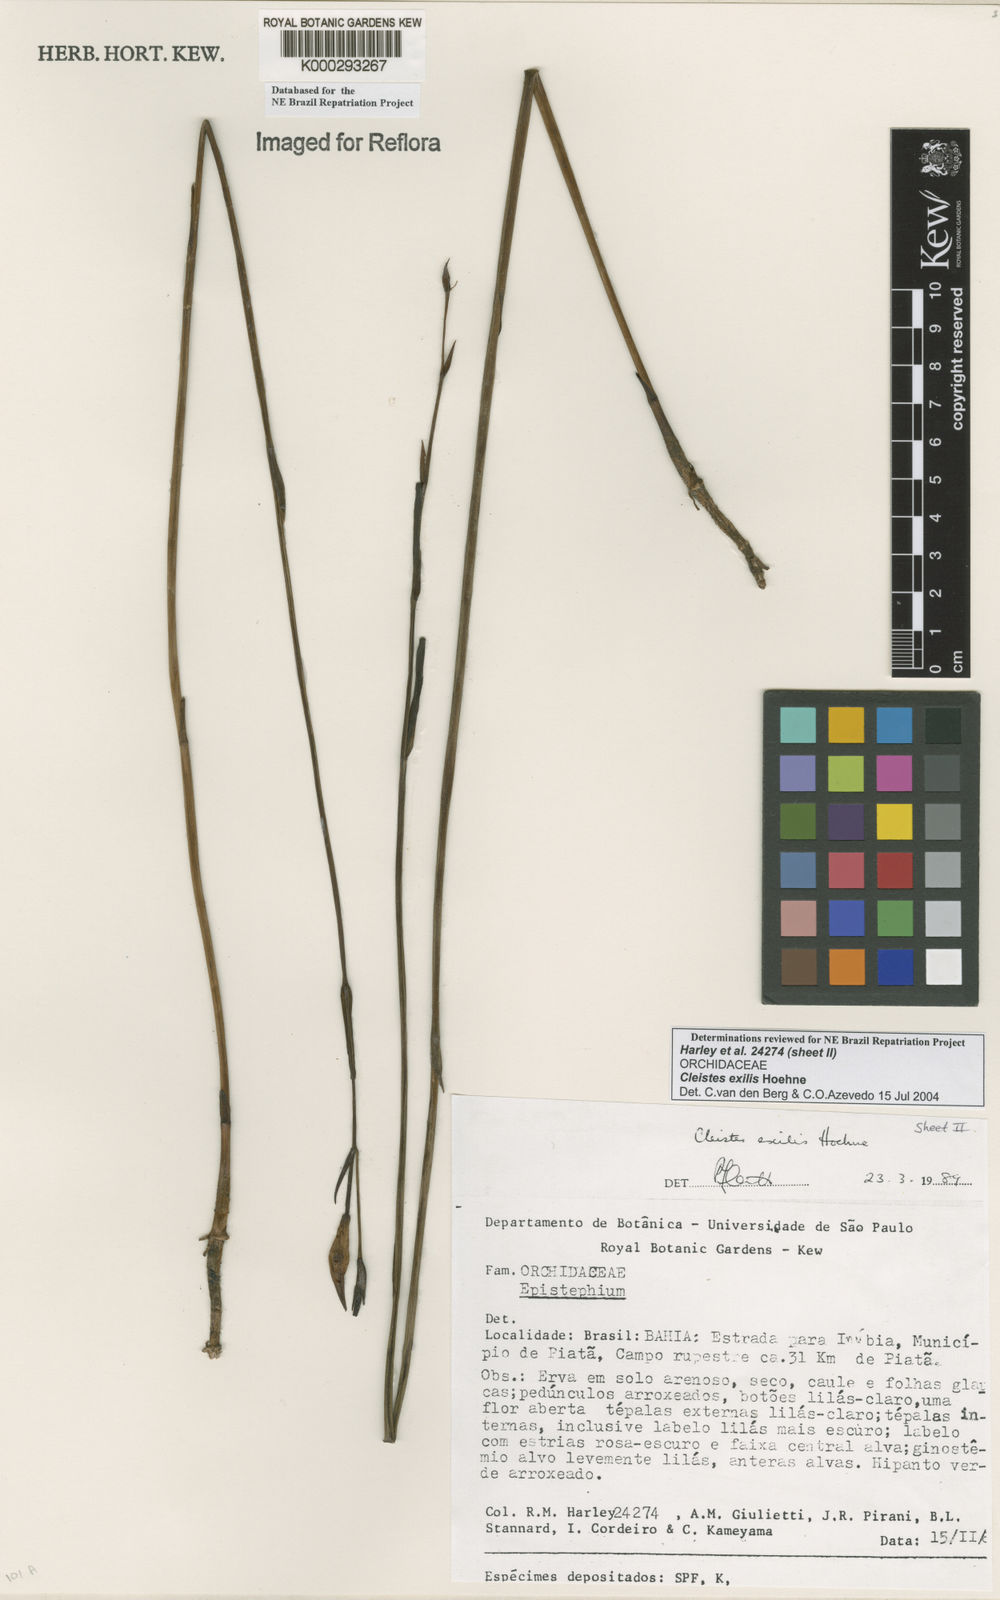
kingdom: Plantae
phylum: Tracheophyta
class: Liliopsida
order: Asparagales
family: Orchidaceae
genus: Cleistes
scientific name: Cleistes exilis
